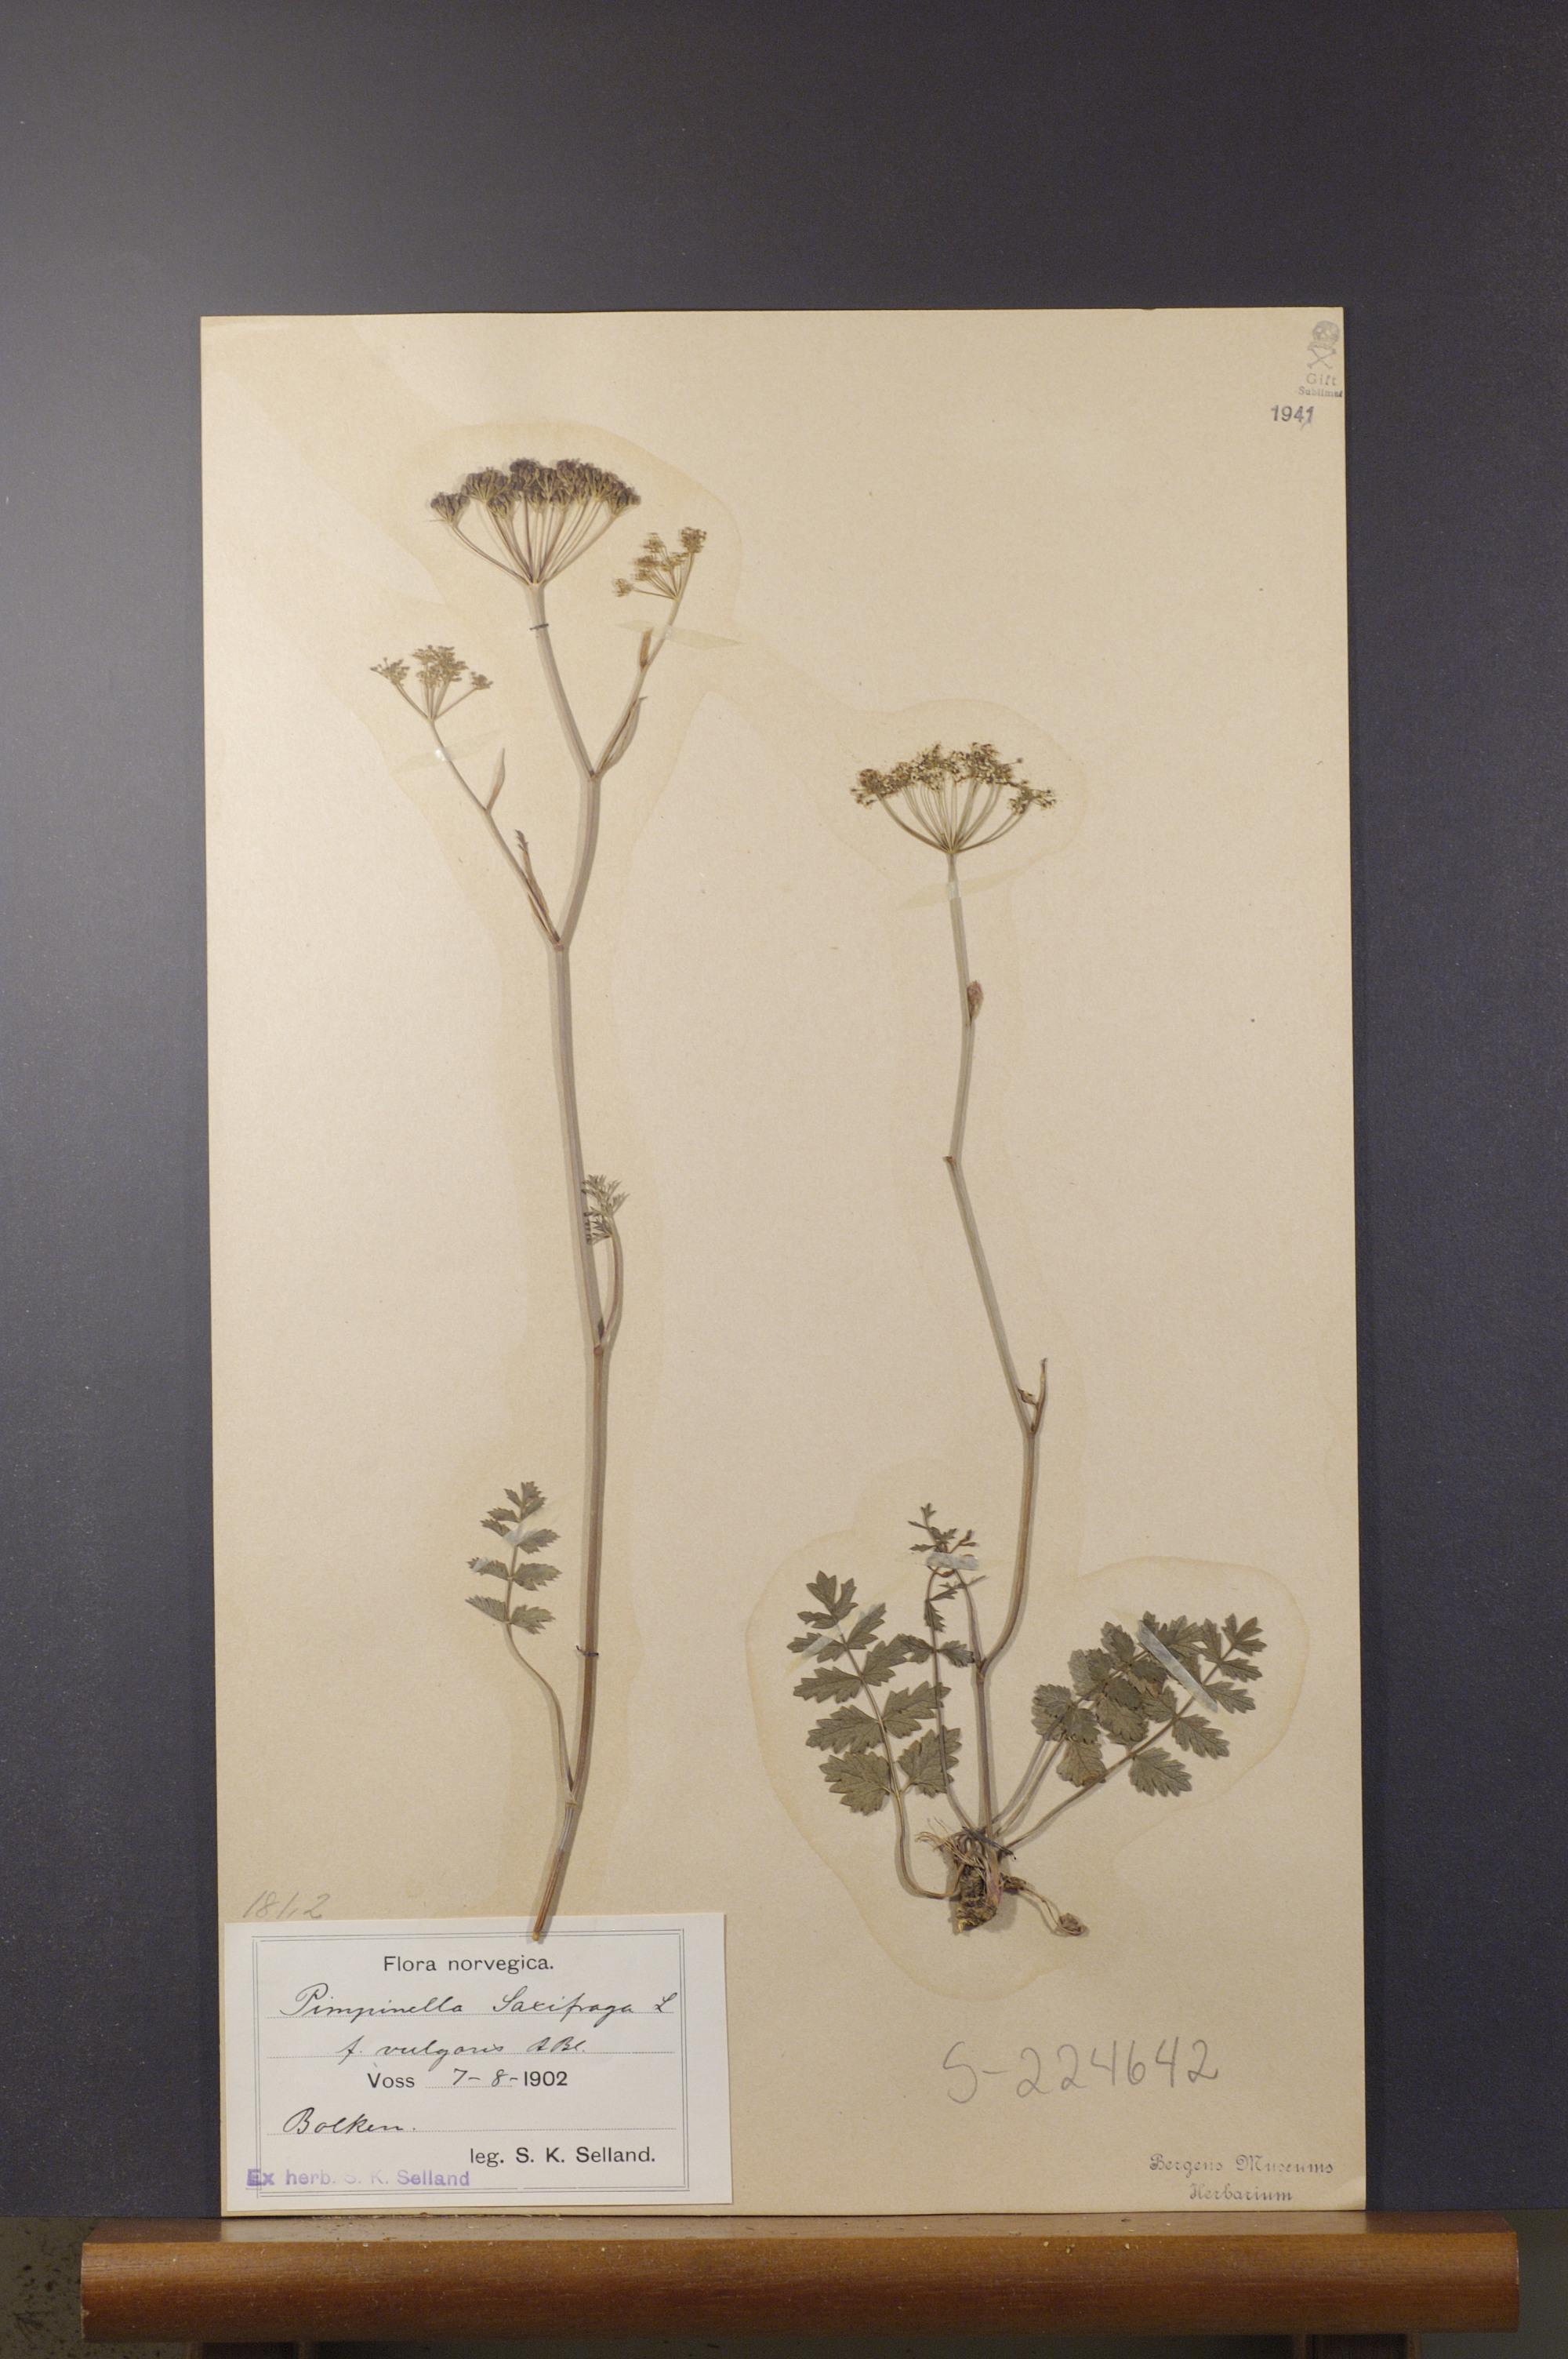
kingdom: Plantae
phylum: Tracheophyta
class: Magnoliopsida
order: Apiales
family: Apiaceae
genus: Pimpinella
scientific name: Pimpinella saxifraga
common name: Burnet-saxifrage
